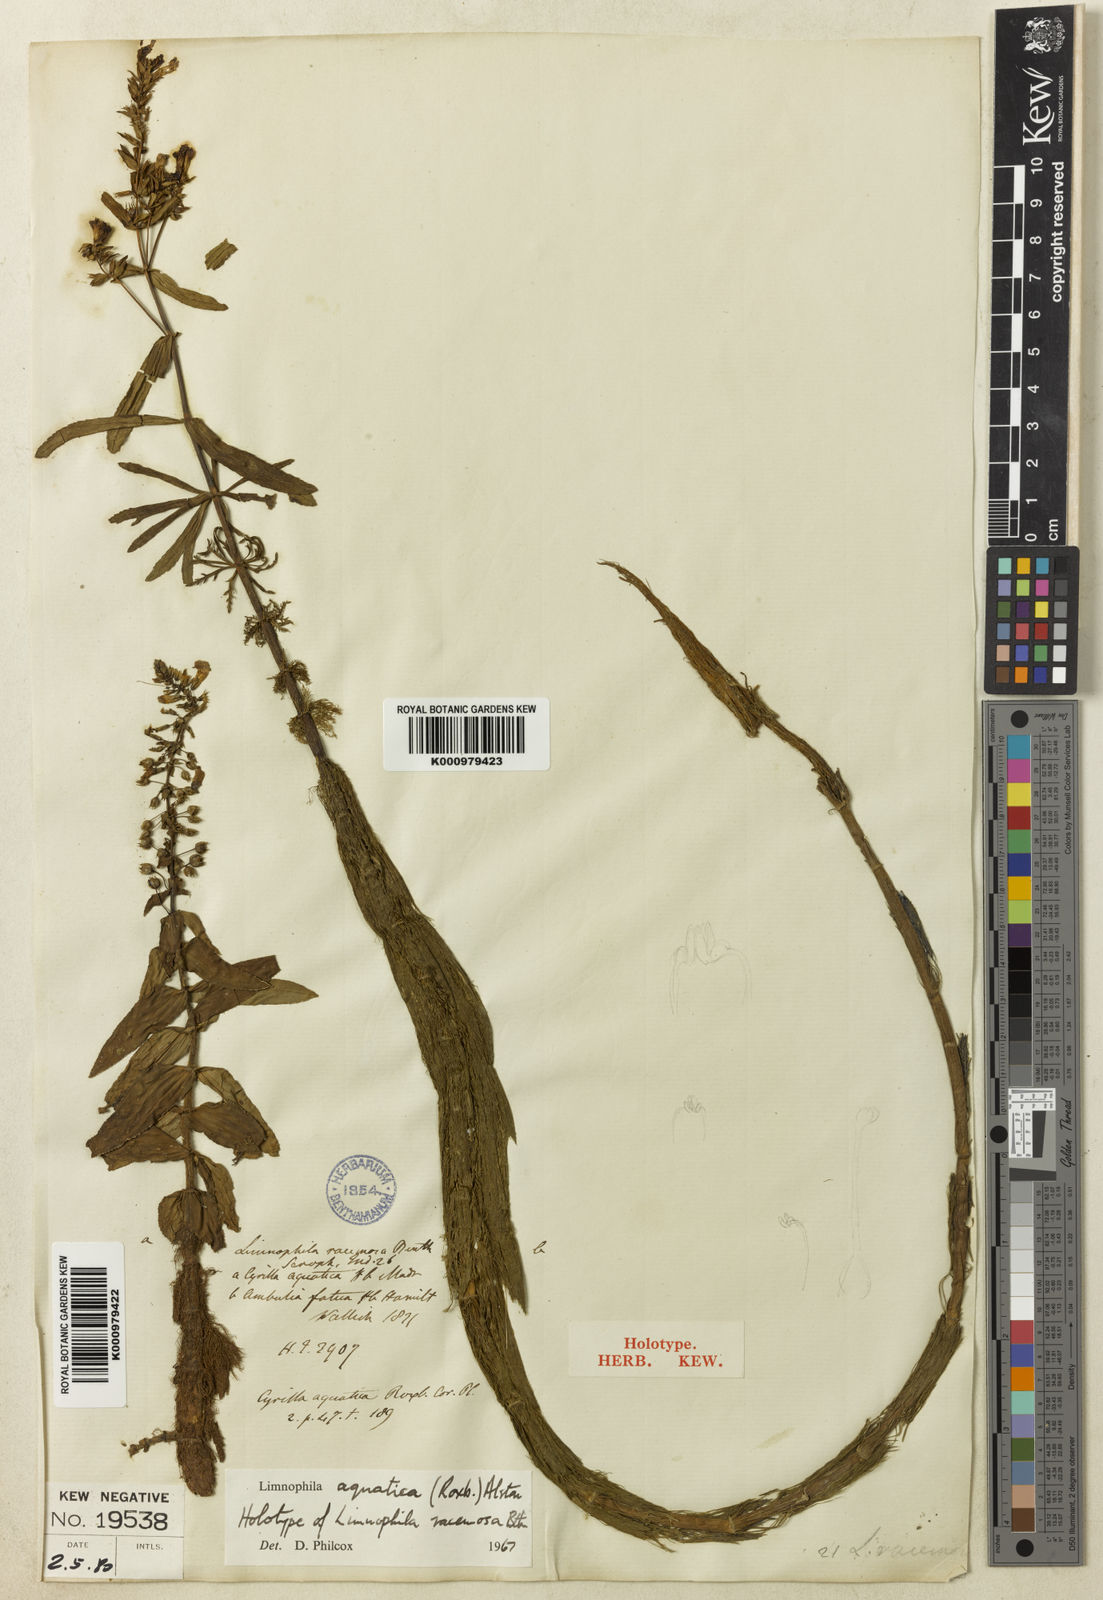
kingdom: Plantae
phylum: Tracheophyta
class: Magnoliopsida
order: Lamiales
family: Plantaginaceae
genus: Limnophila
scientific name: Limnophila aquatica
